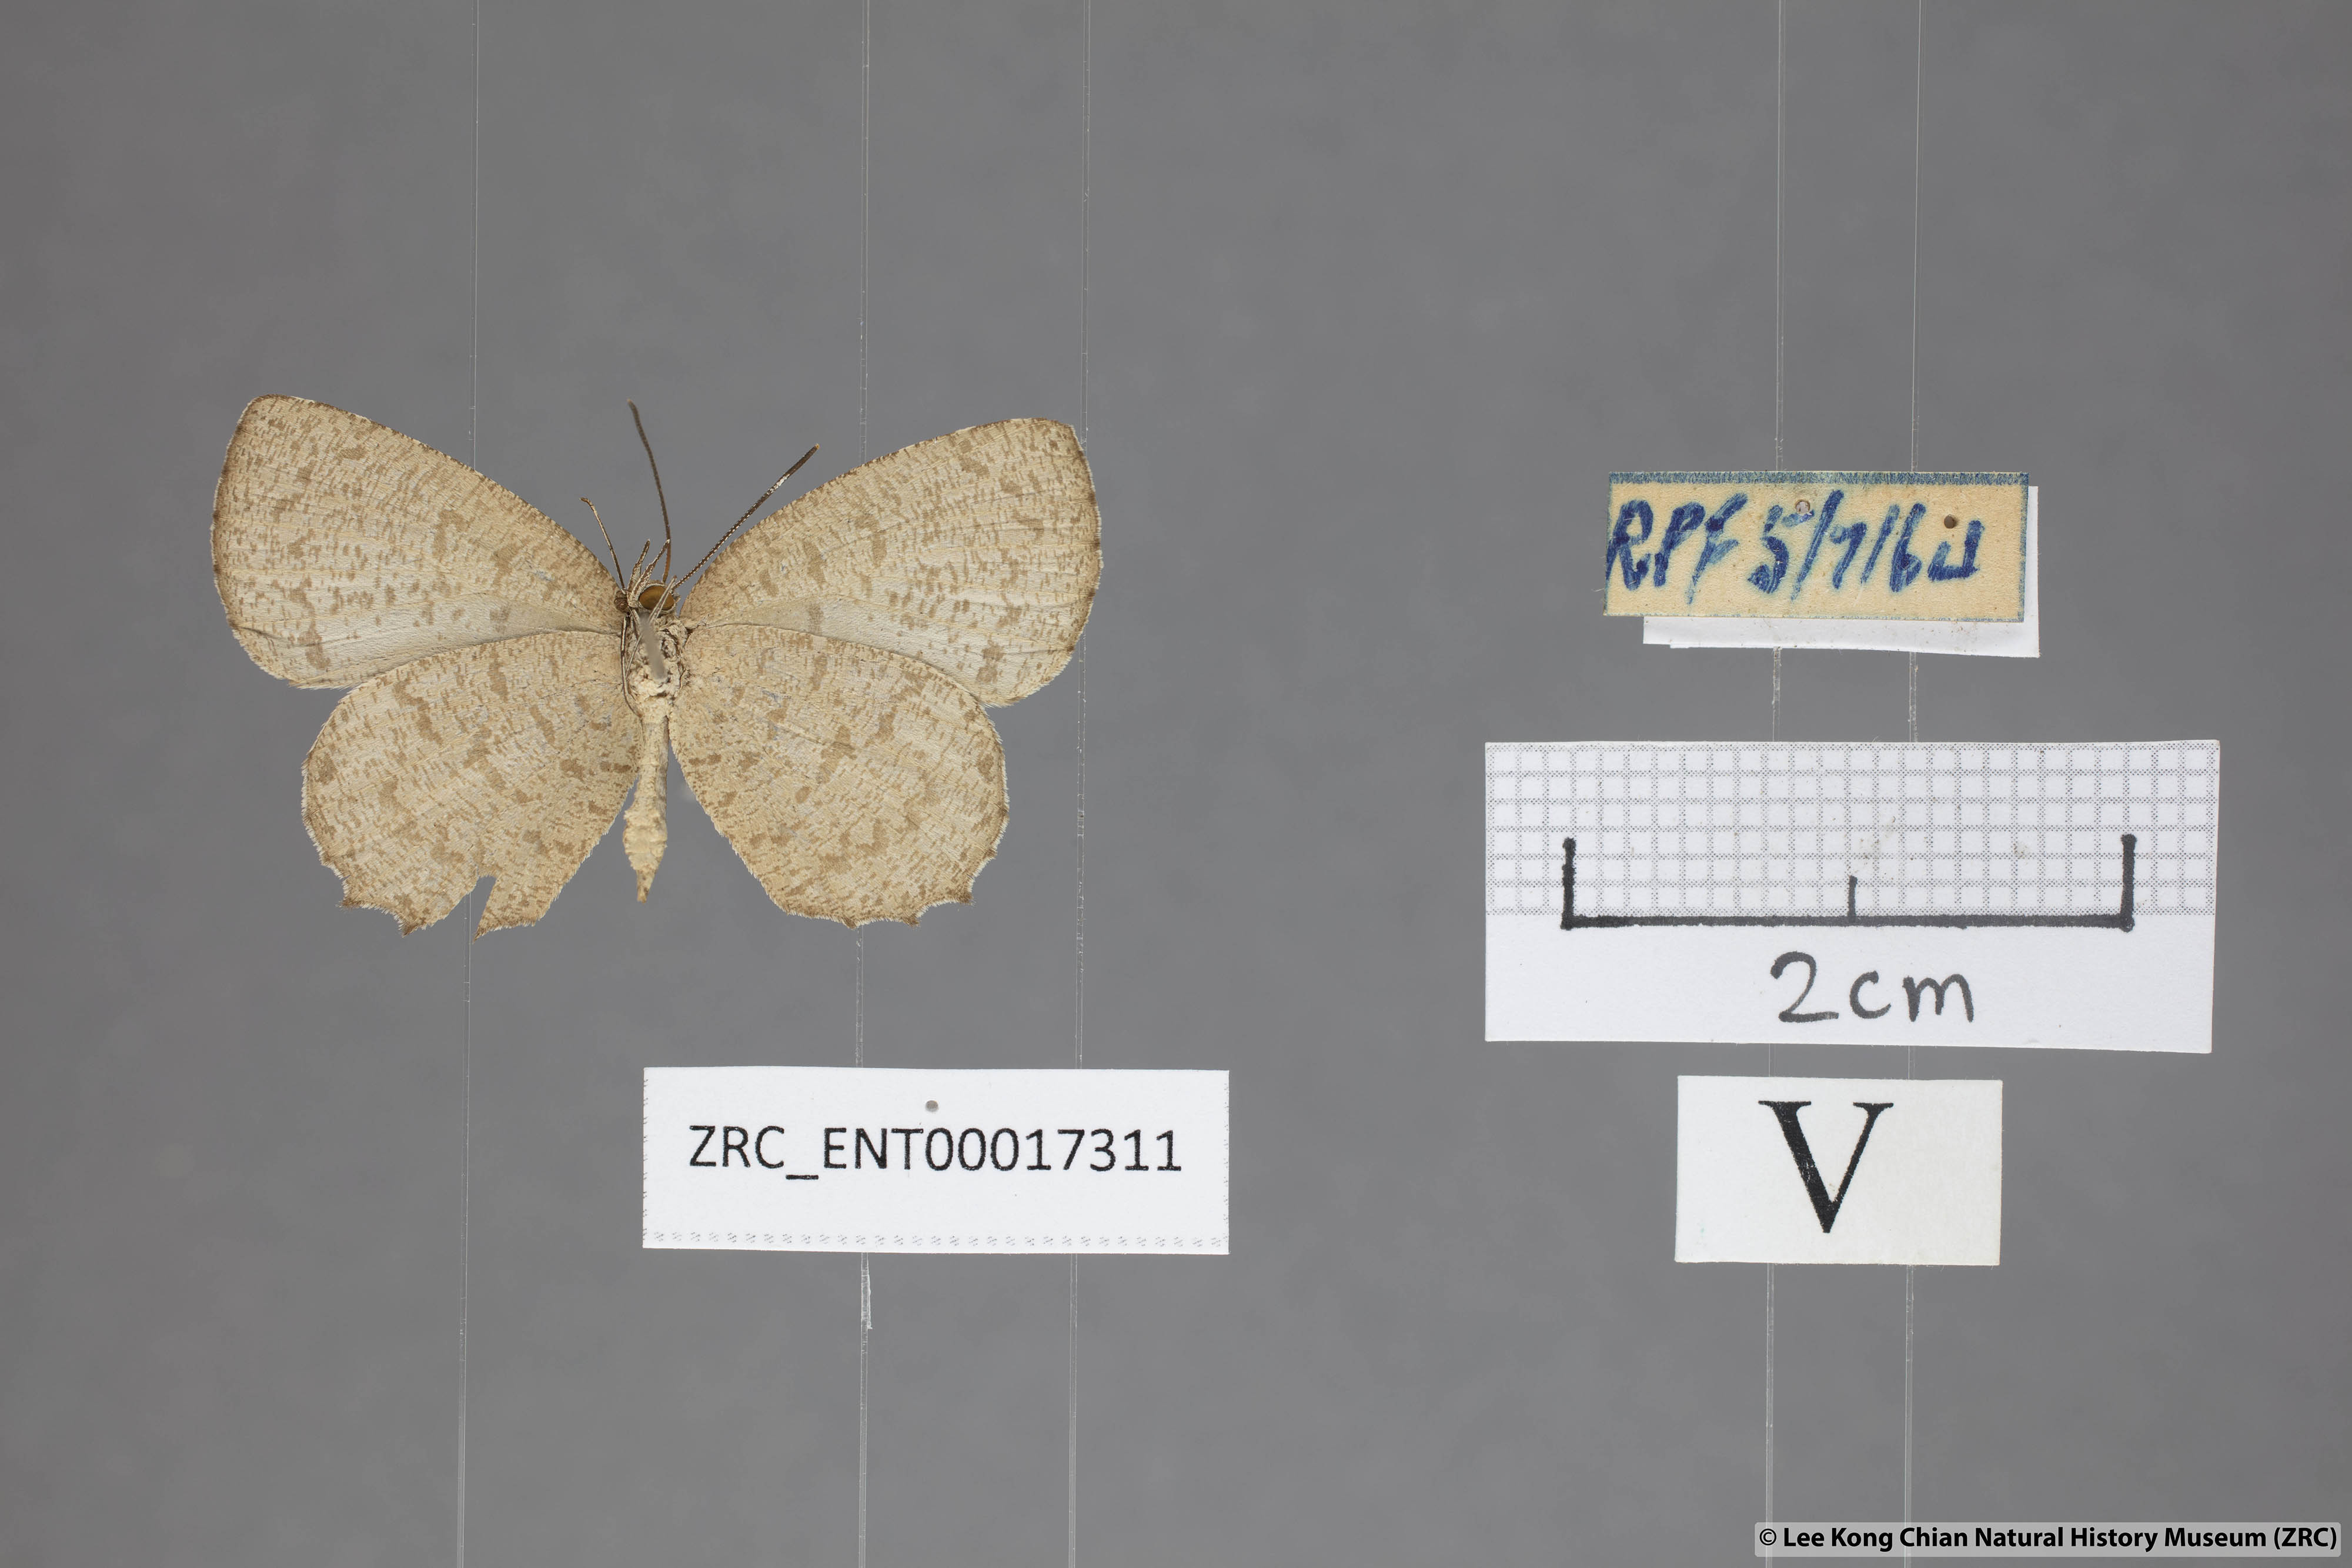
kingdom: Animalia
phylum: Arthropoda
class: Insecta
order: Lepidoptera
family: Lycaenidae
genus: Allotinus
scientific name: Allotinus subviolaceus
